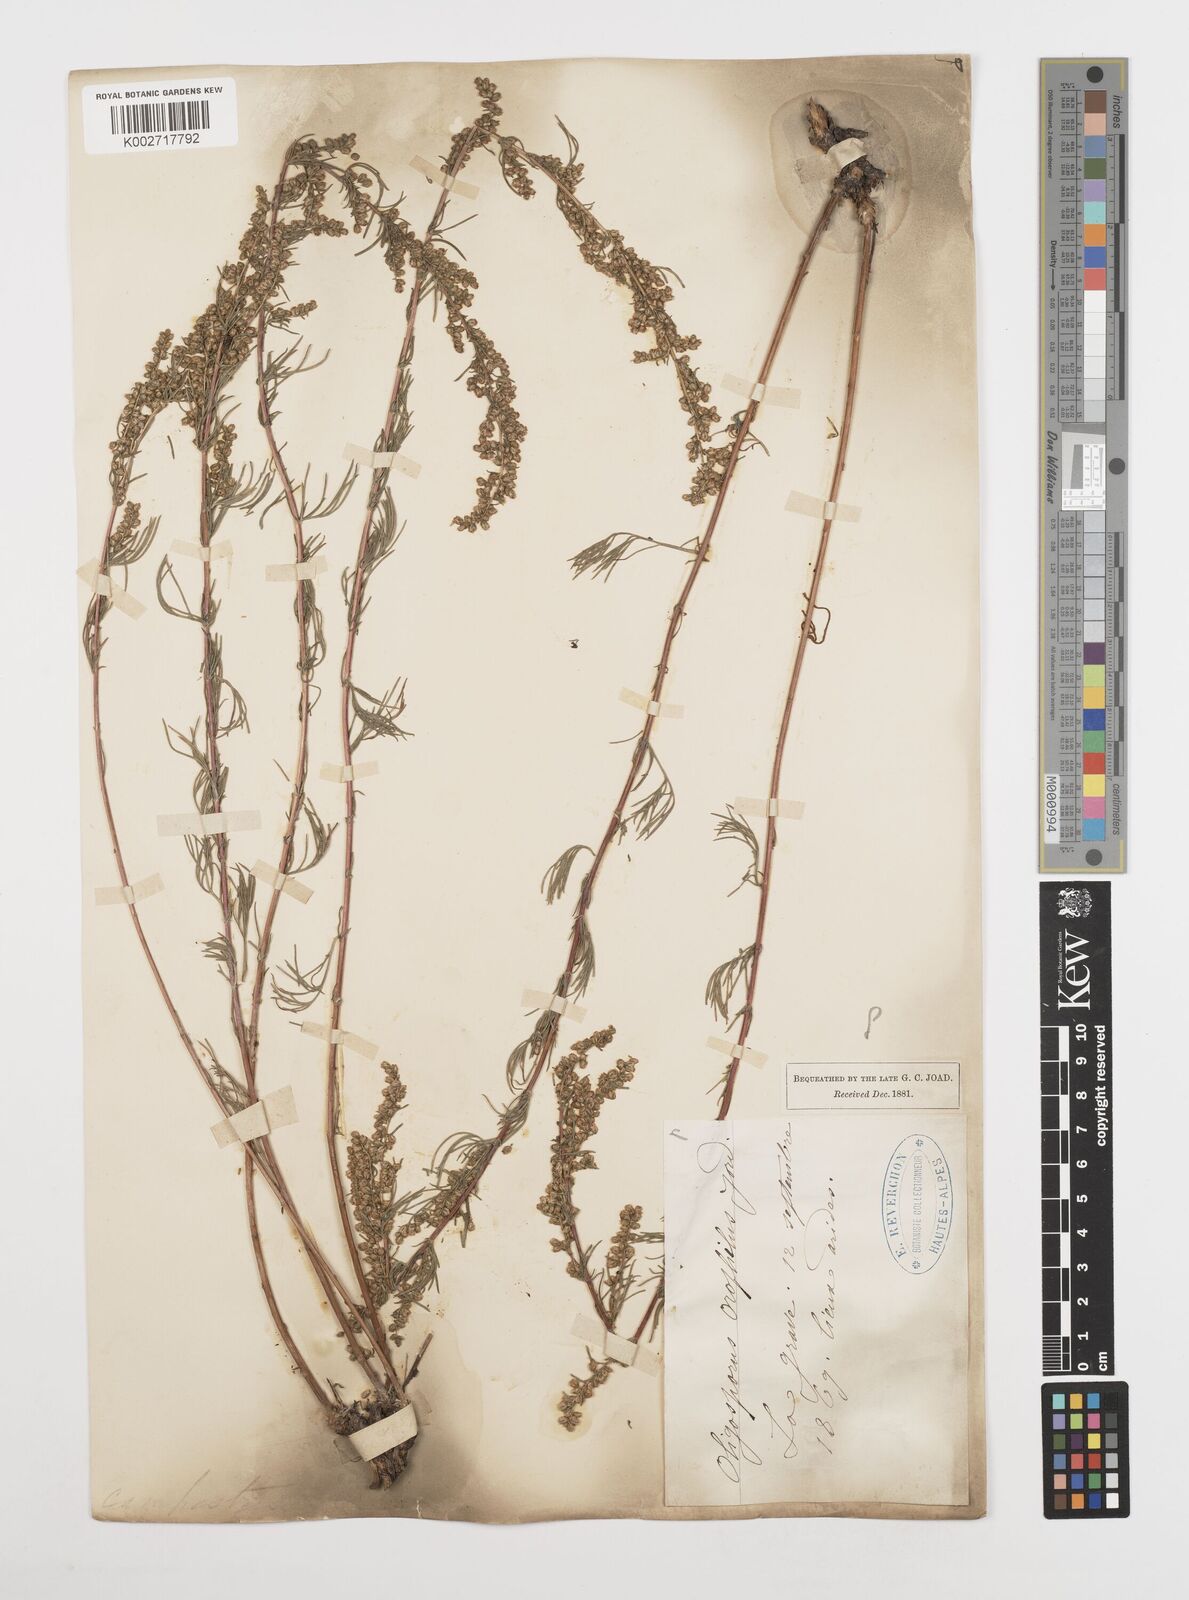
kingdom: Plantae
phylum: Tracheophyta
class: Magnoliopsida
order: Asterales
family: Asteraceae
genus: Artemisia
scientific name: Artemisia
